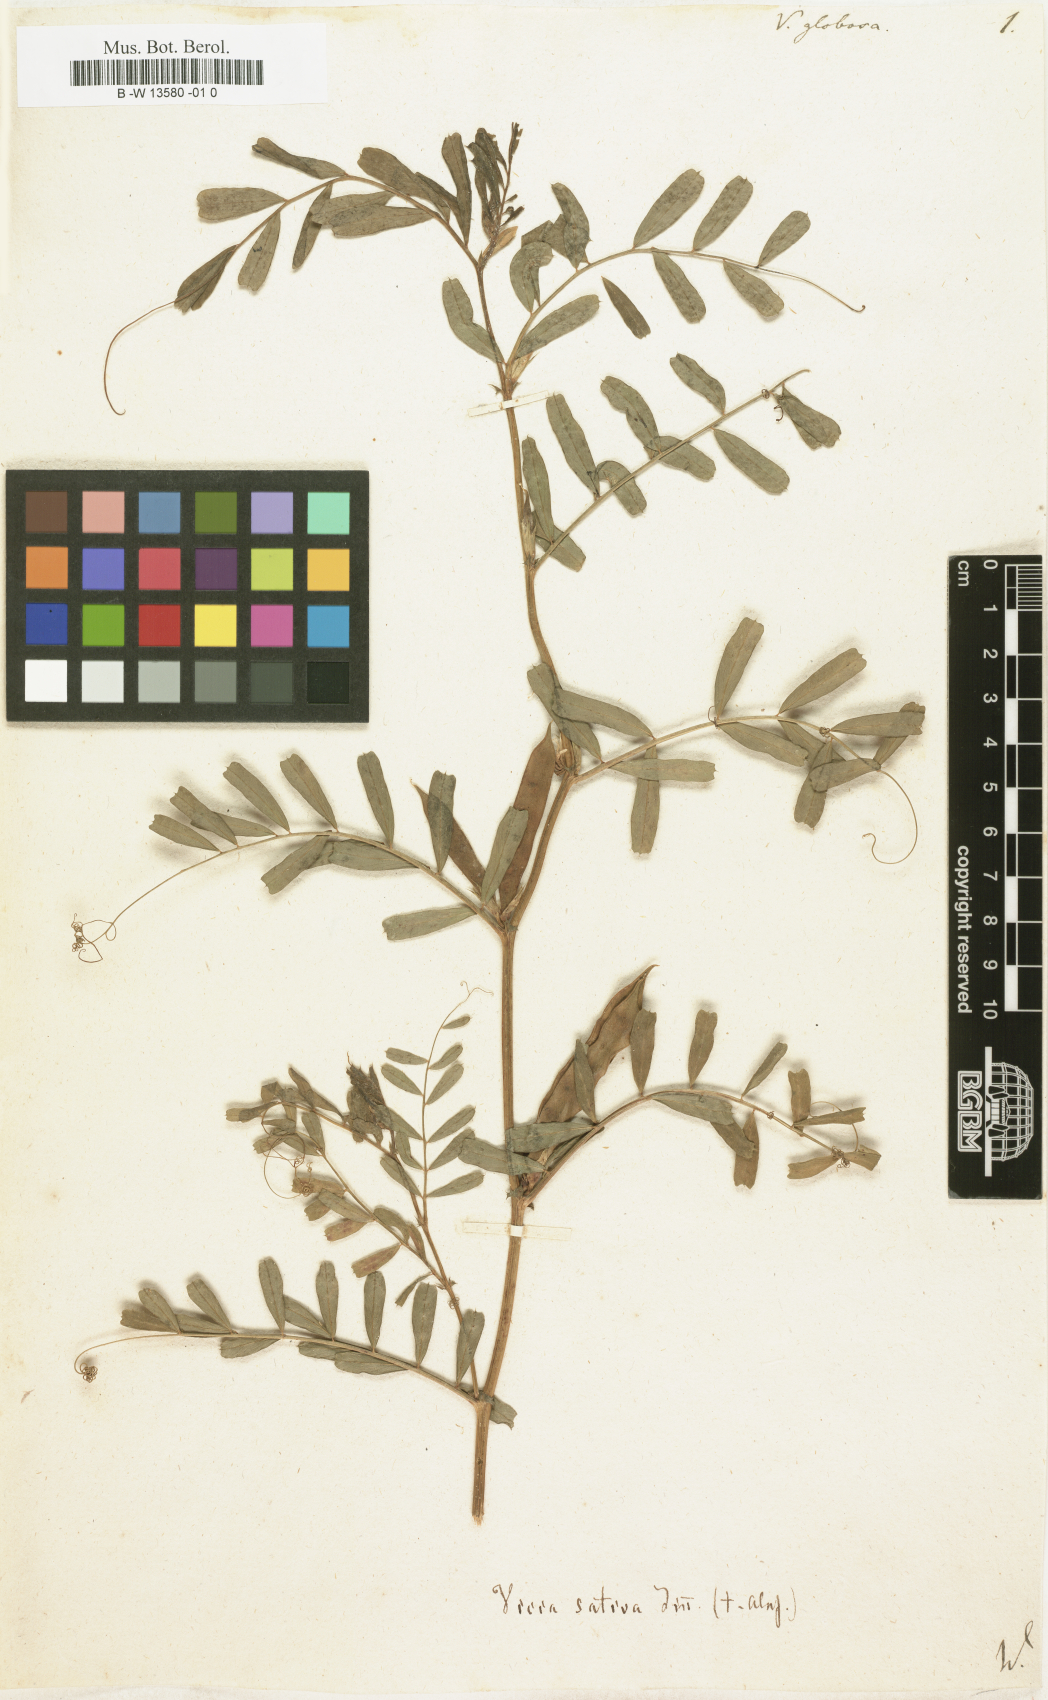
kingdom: Plantae
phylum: Tracheophyta
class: Magnoliopsida
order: Fabales
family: Fabaceae
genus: Vicia
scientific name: Vicia sativa
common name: Garden vetch
